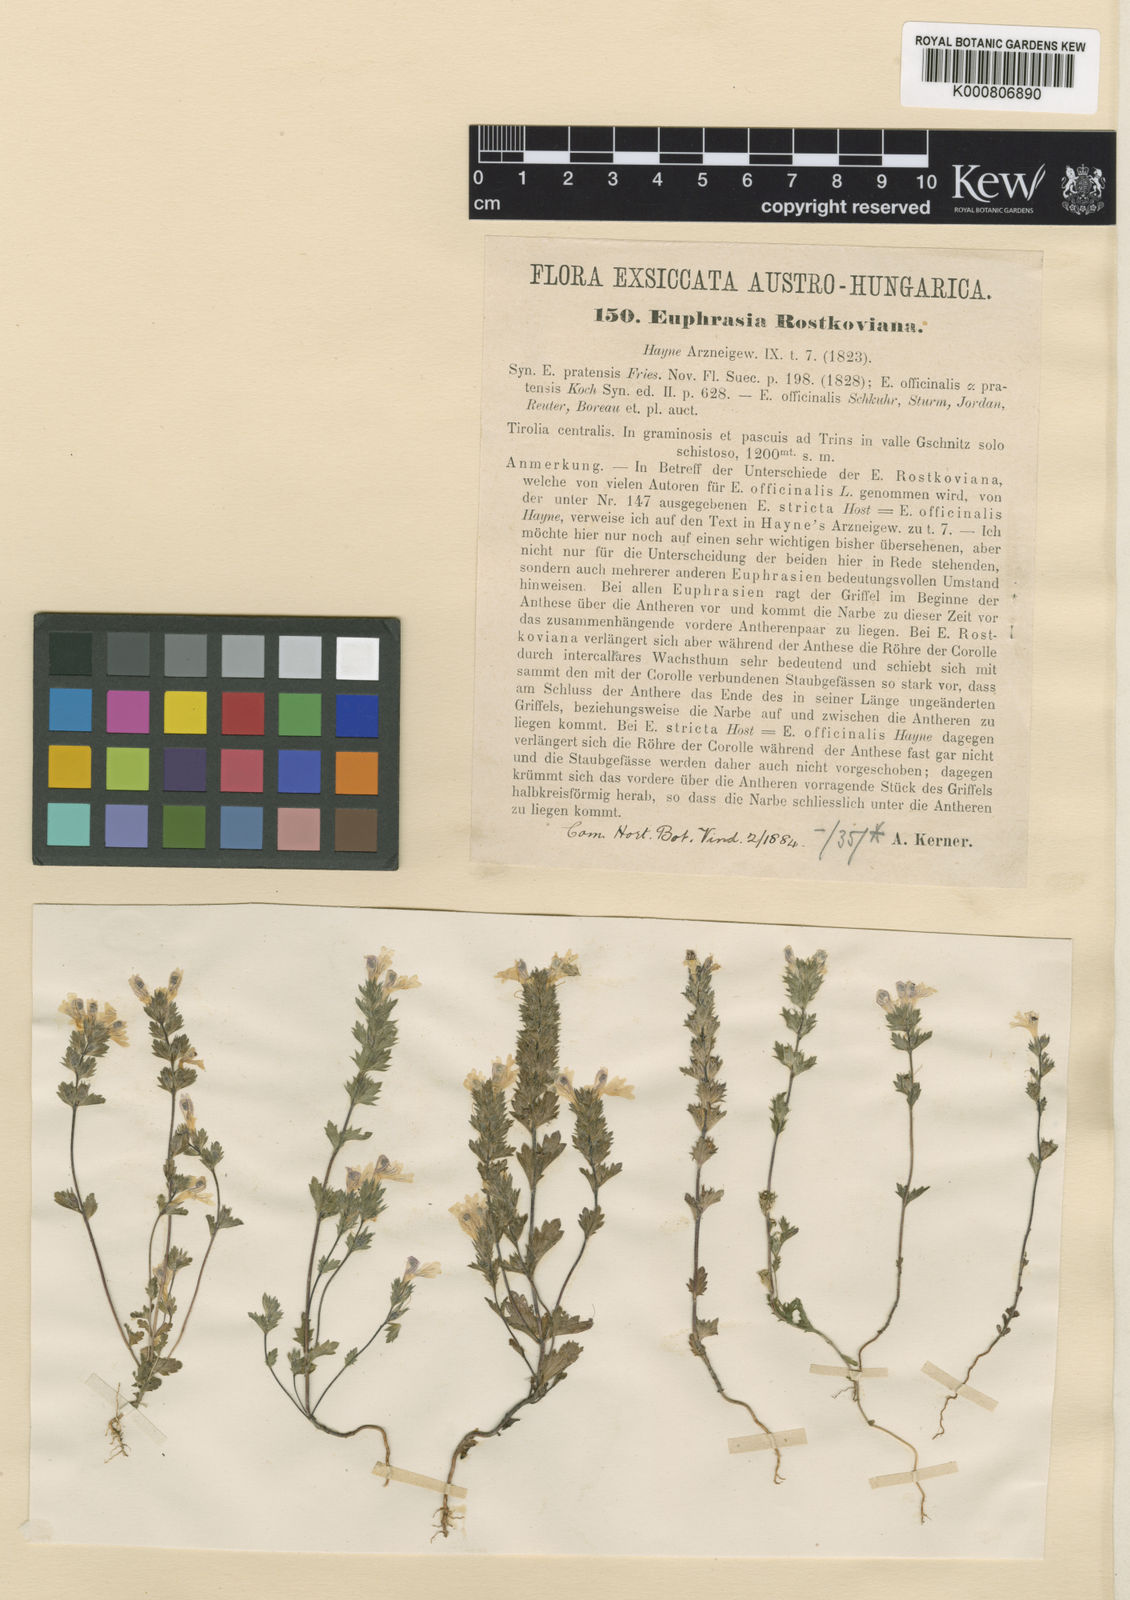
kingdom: Plantae
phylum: Tracheophyta
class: Magnoliopsida
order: Lamiales
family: Orobanchaceae
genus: Euphrasia
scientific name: Euphrasia officinalis
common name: Eyebright
